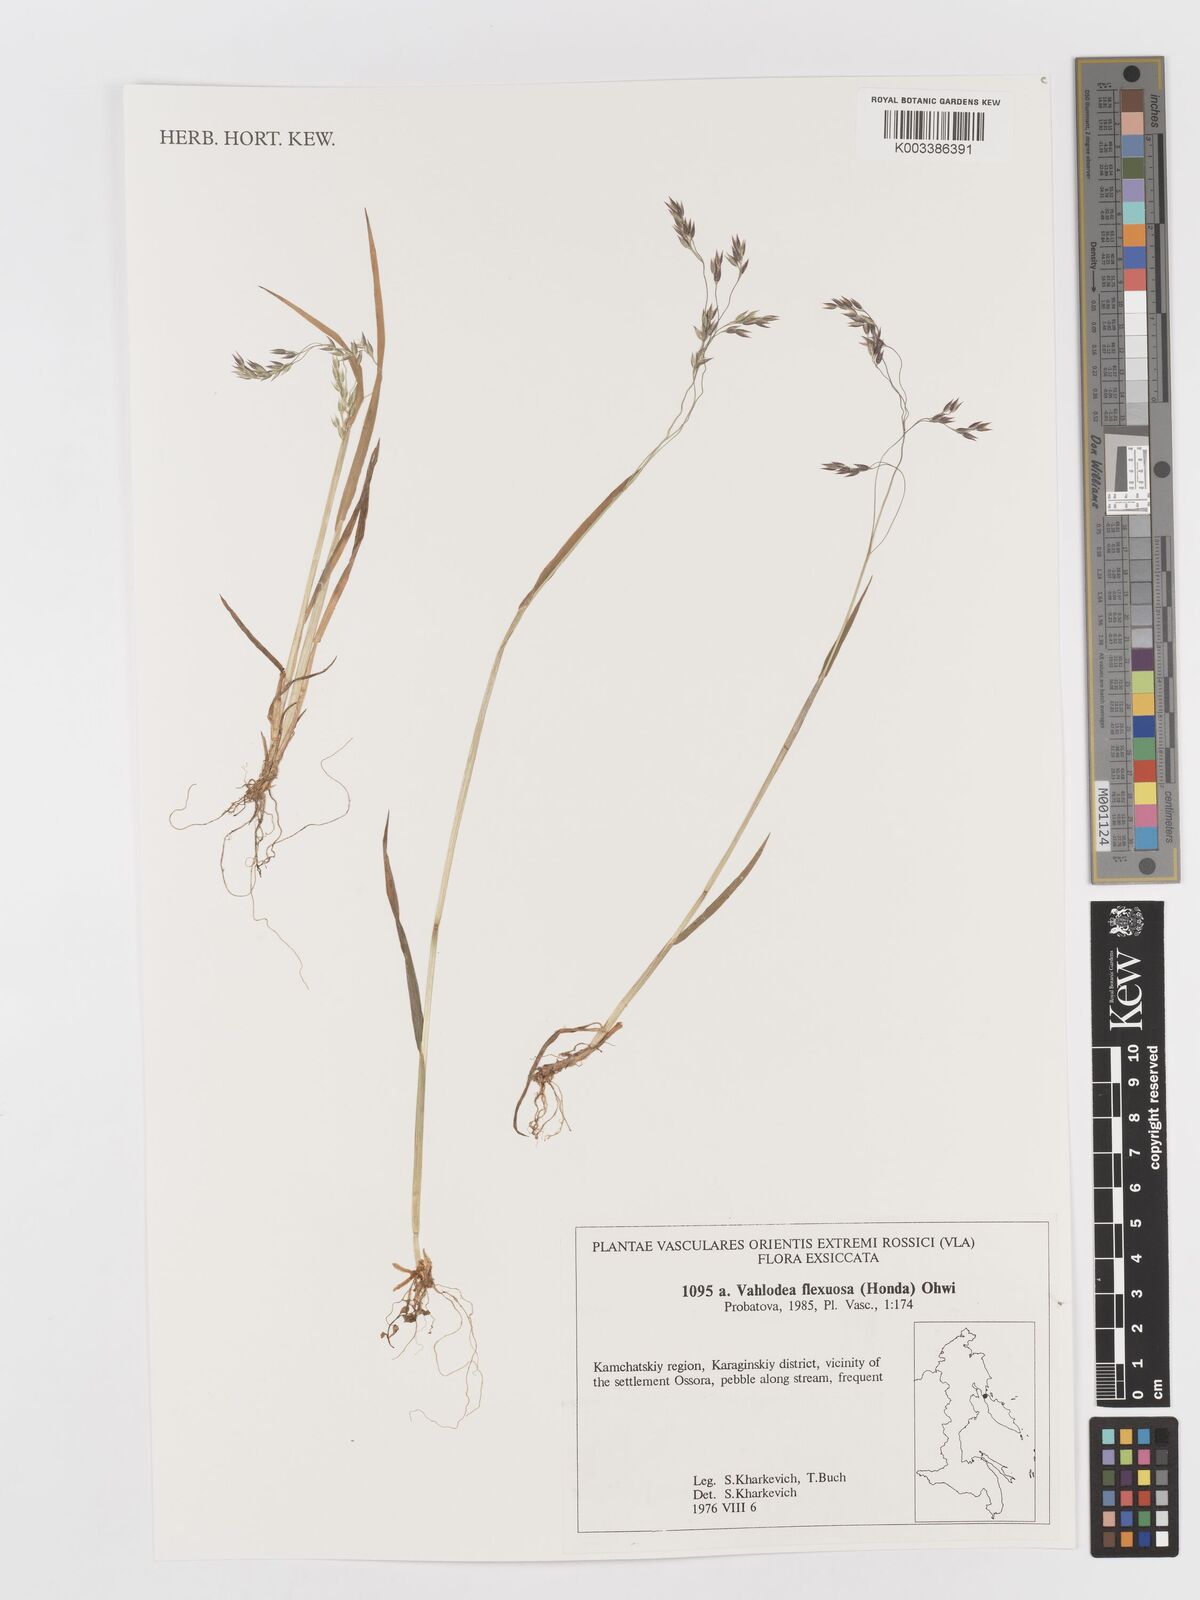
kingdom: Plantae
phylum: Tracheophyta
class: Liliopsida
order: Poales
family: Poaceae
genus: Avenella
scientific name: Avenella flexuosa
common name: Wavy hairgrass
